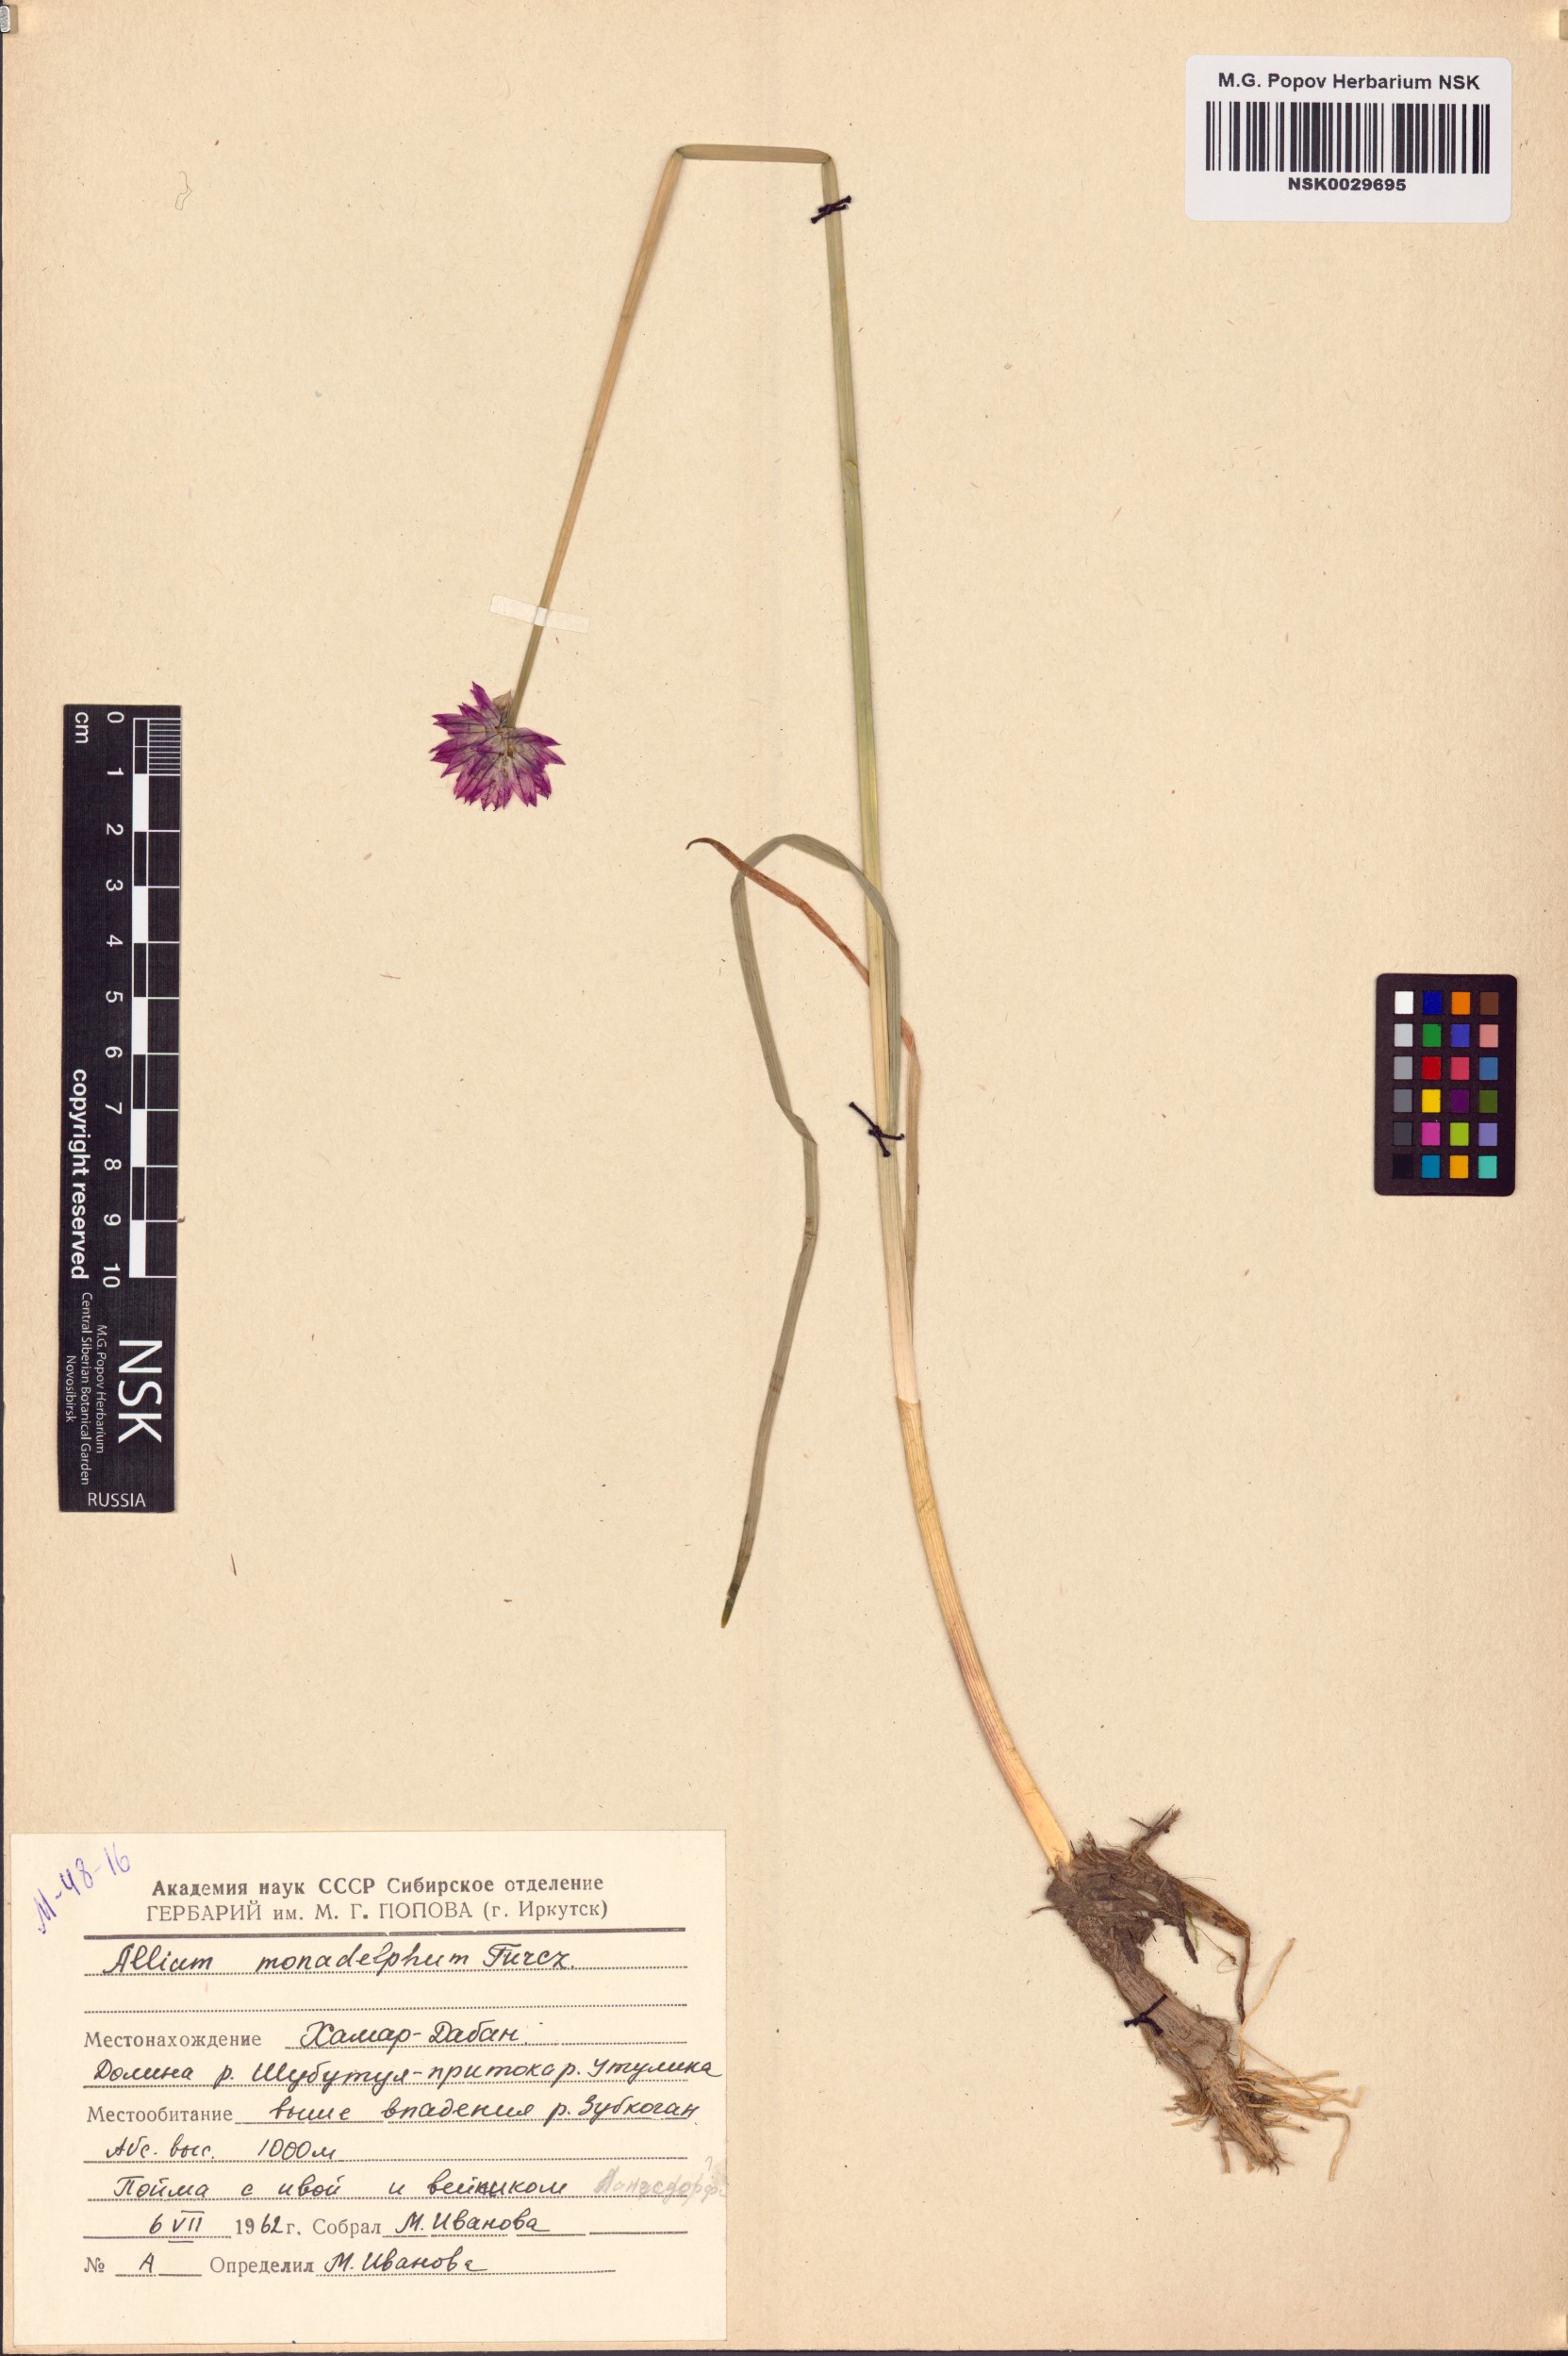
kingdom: Plantae
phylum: Tracheophyta
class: Liliopsida
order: Asparagales
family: Amaryllidaceae
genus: Allium
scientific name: Allium atrosanguineum
